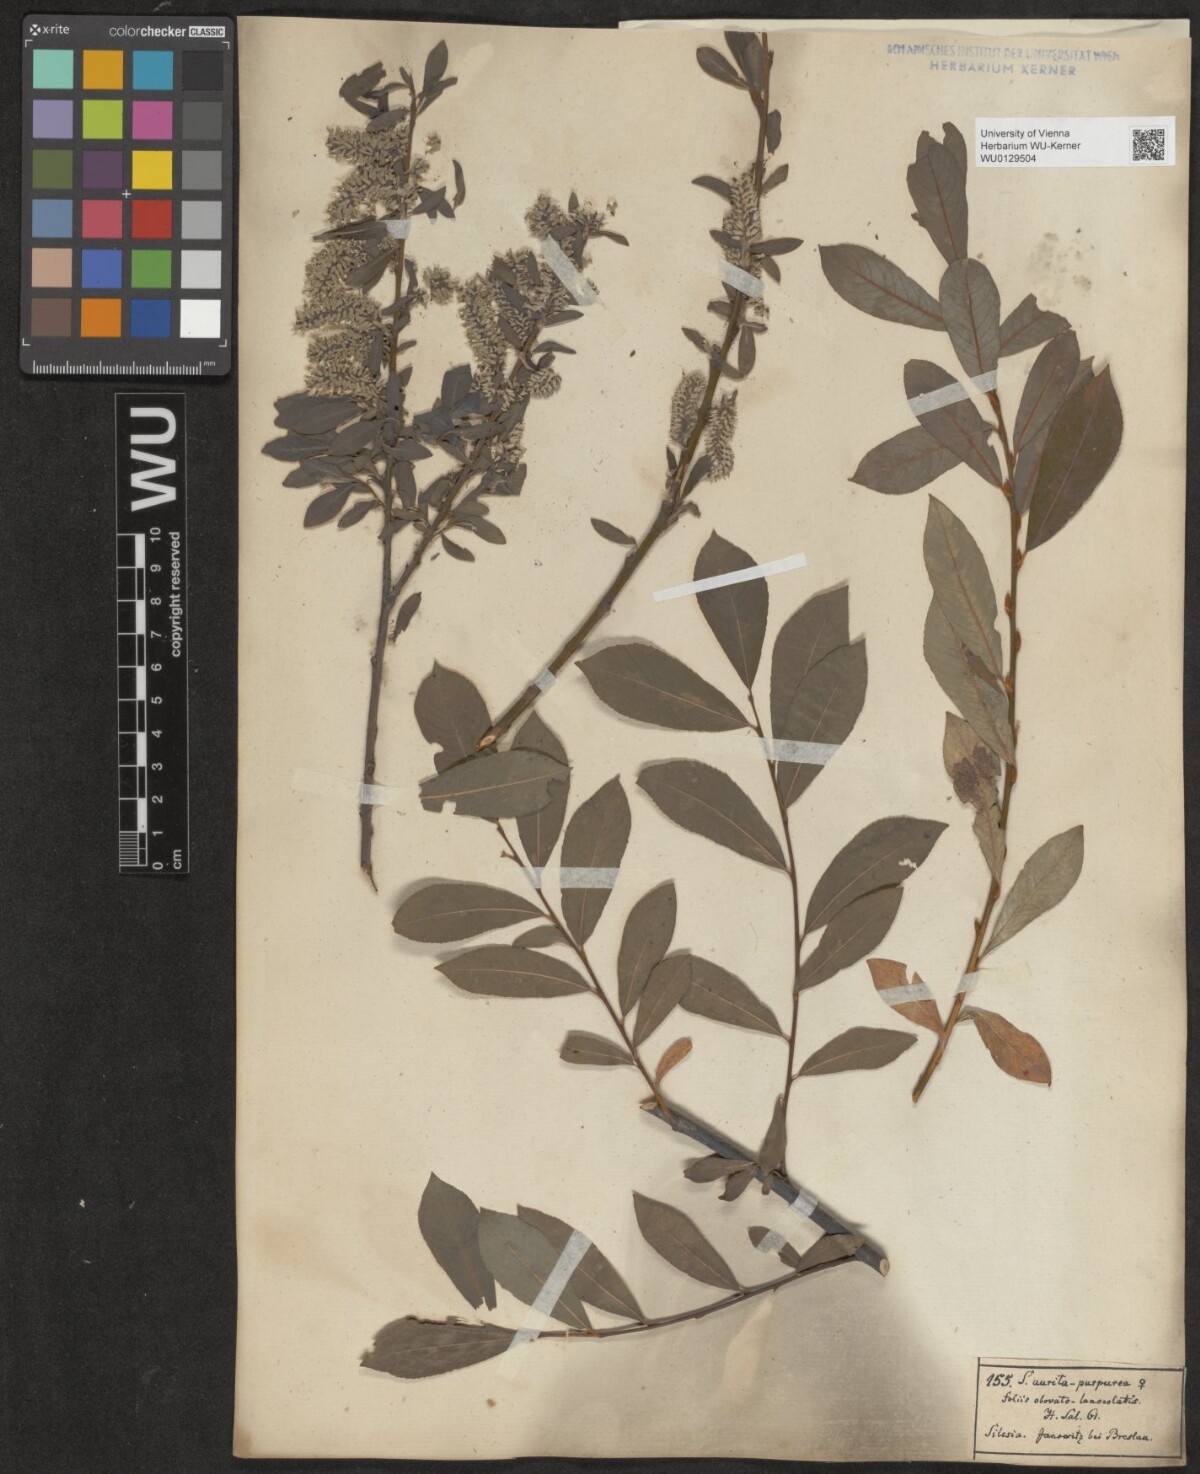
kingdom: Plantae
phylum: Tracheophyta
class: Magnoliopsida
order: Malpighiales
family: Salicaceae
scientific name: Salicaceae
